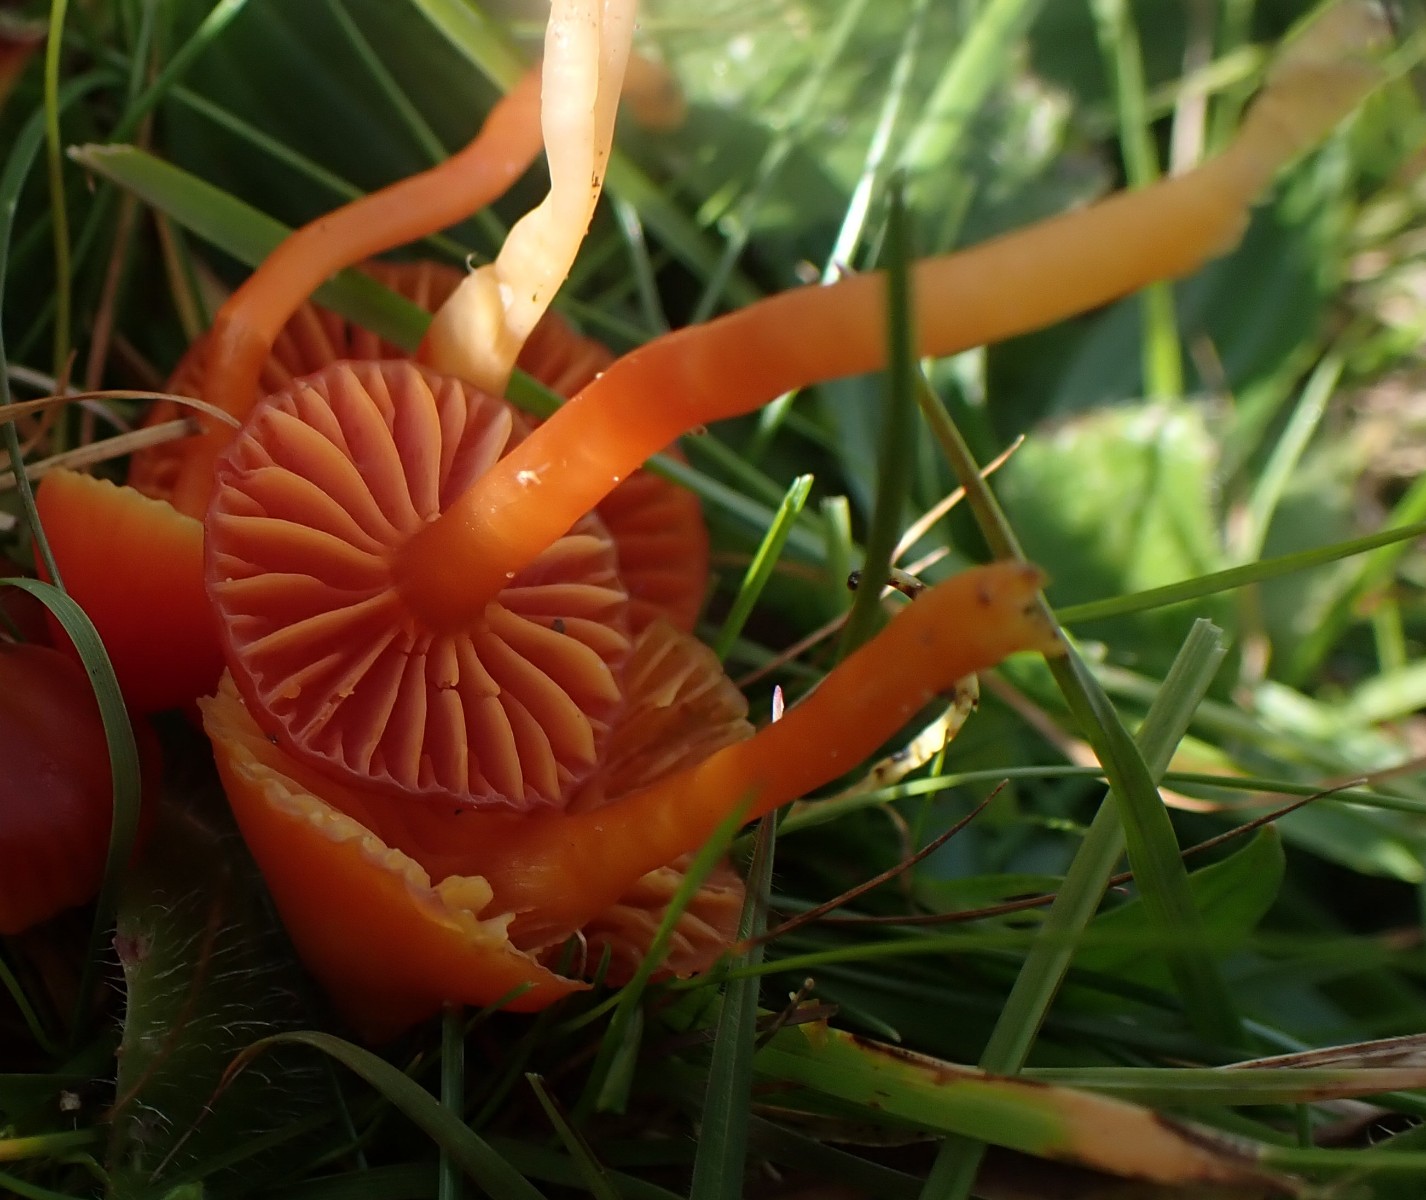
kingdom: Fungi
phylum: Basidiomycota
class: Agaricomycetes
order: Agaricales
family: Hygrophoraceae
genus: Hygrocybe
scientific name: Hygrocybe mucronella
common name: bitter vokshat
